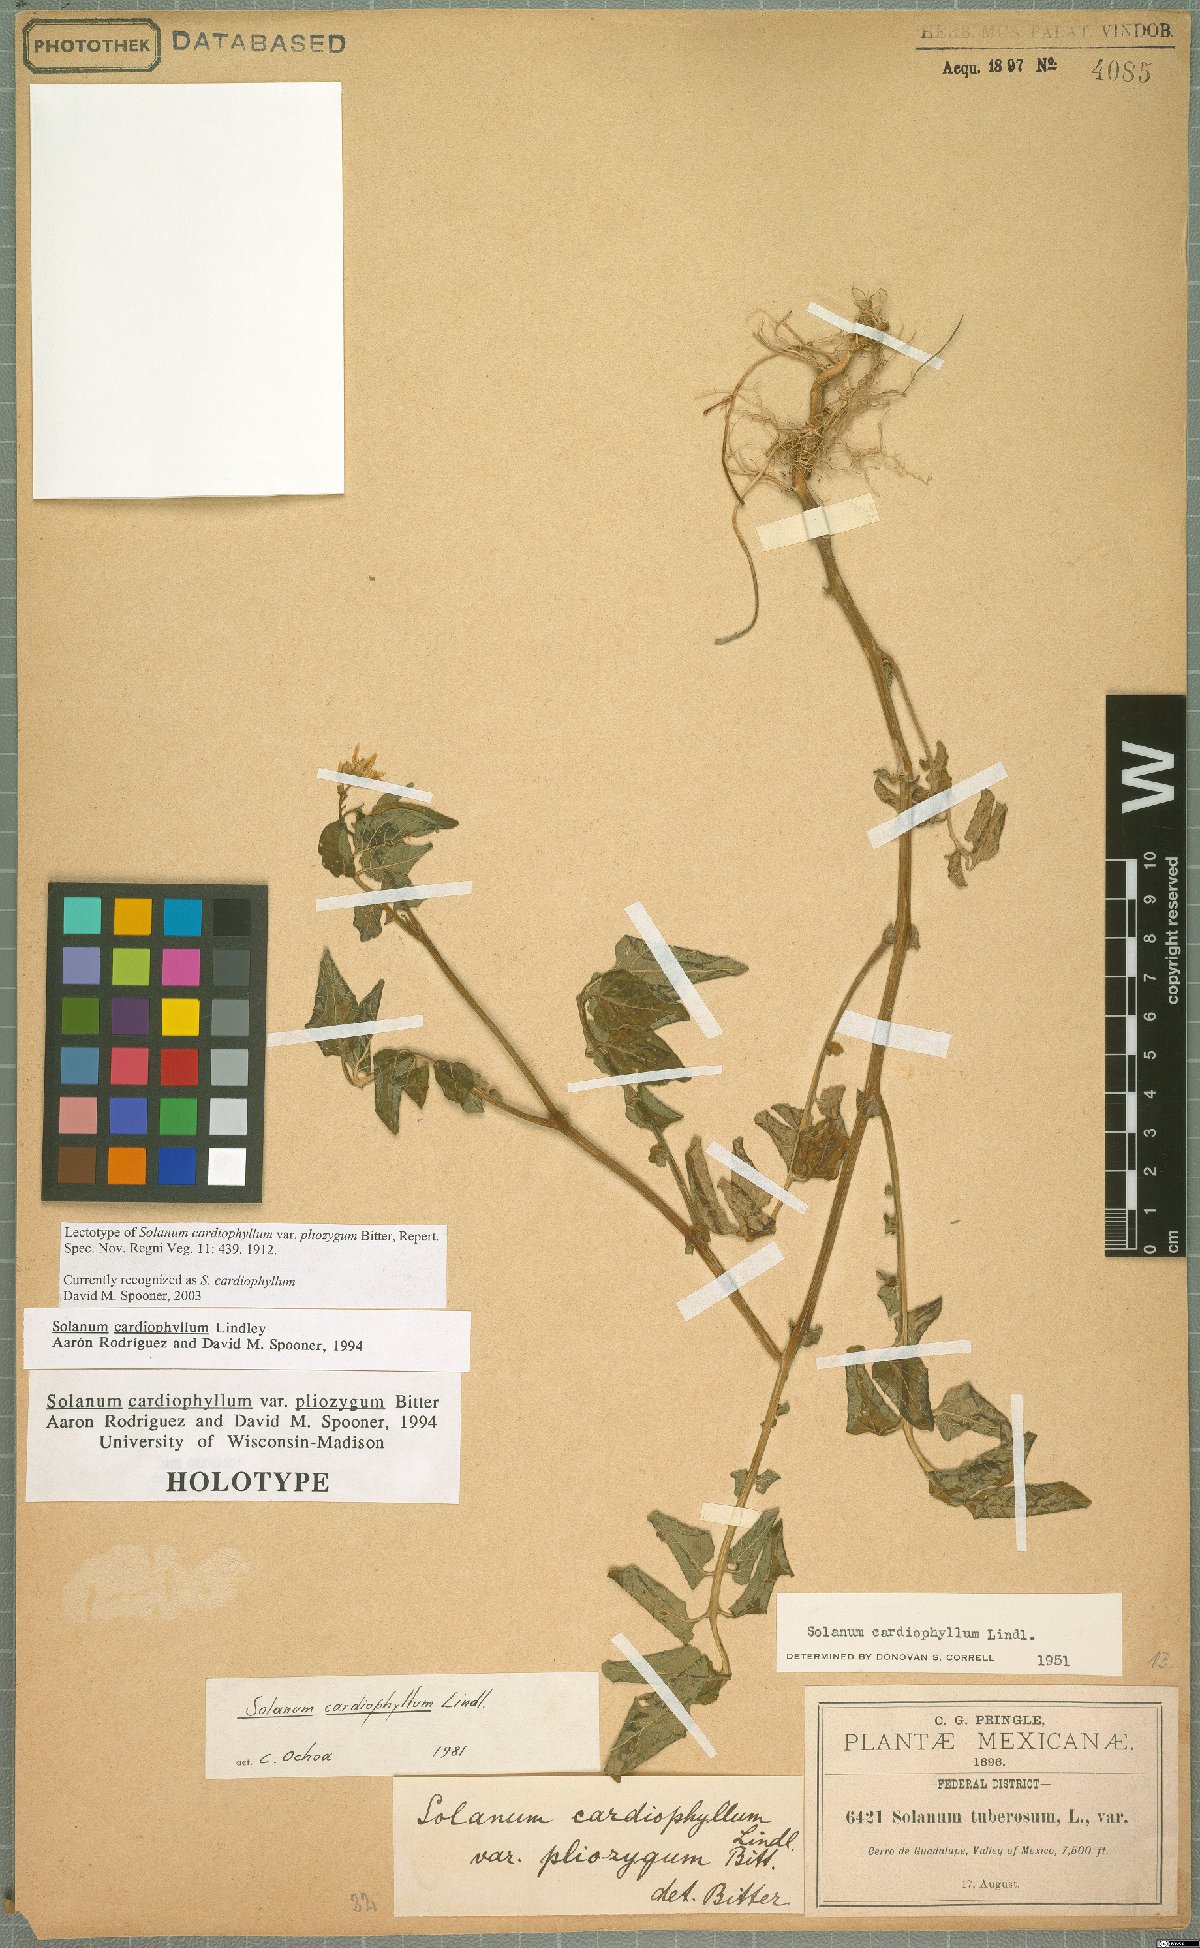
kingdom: Plantae
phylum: Tracheophyta
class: Magnoliopsida
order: Solanales
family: Solanaceae
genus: Solanum
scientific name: Solanum cardiophyllum
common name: Heartleaf horsenettle
